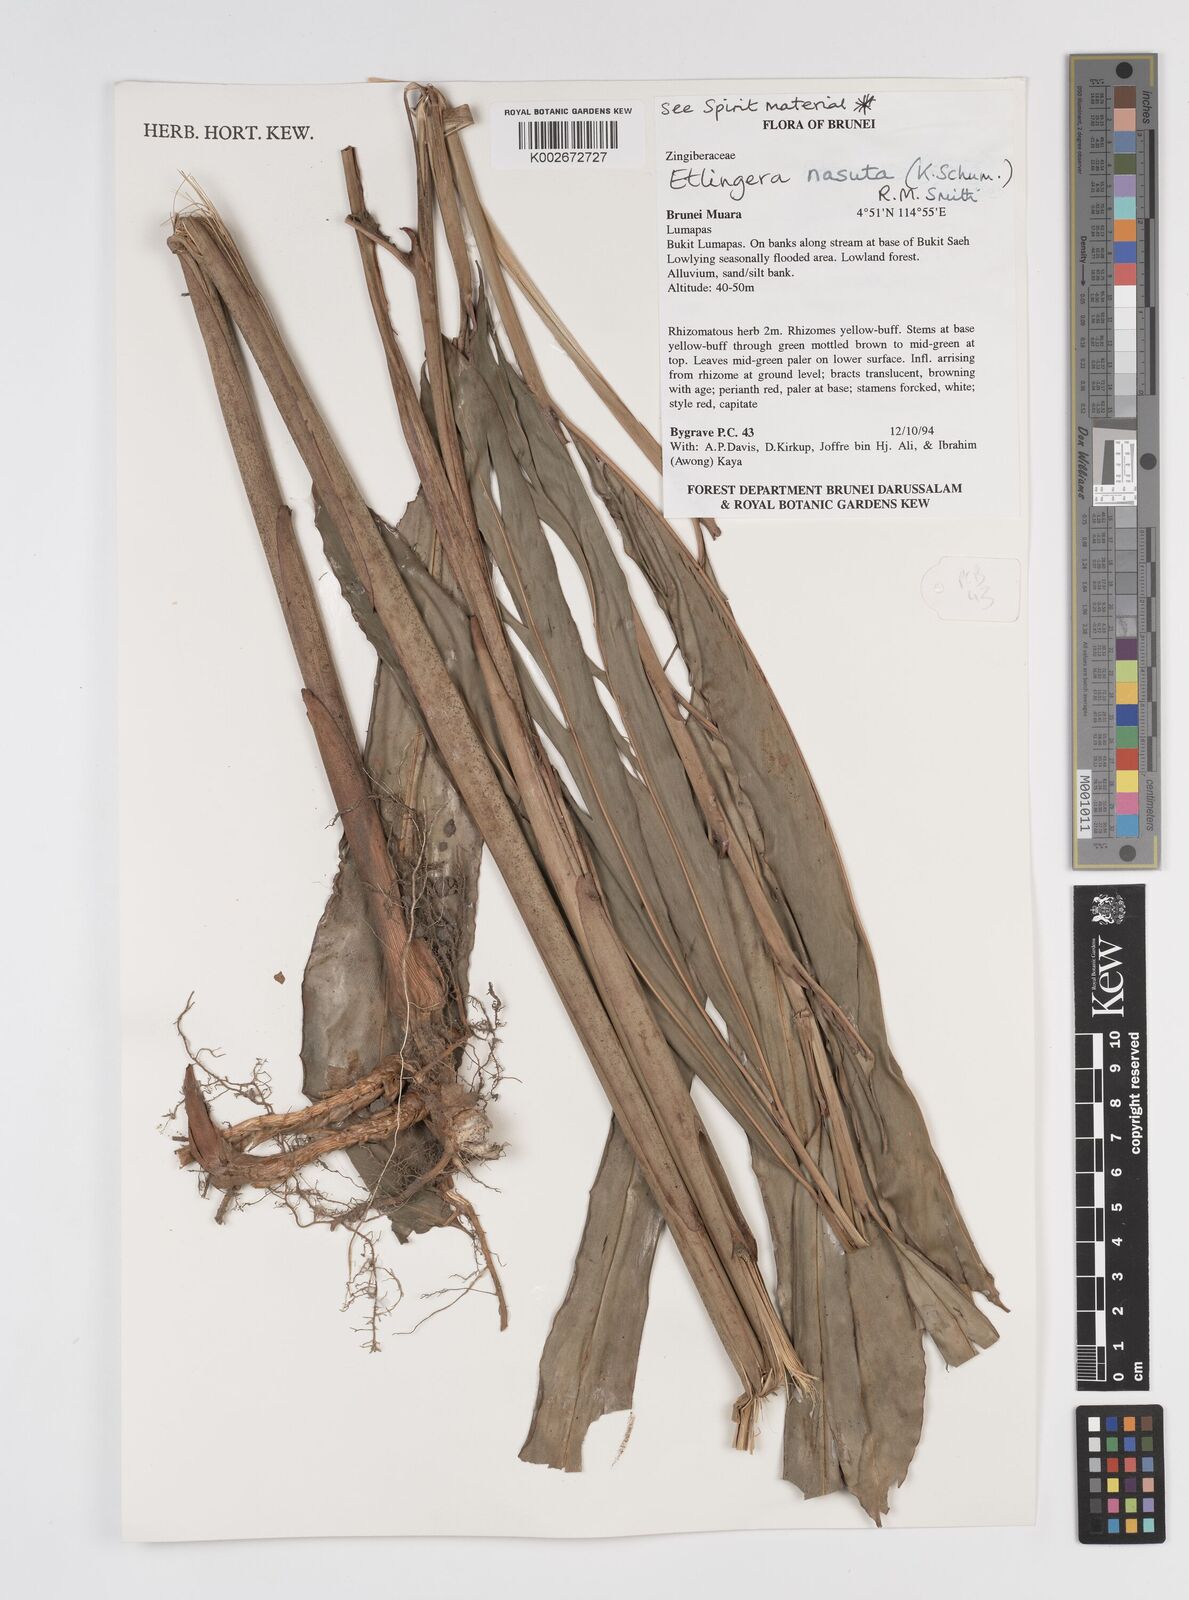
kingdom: Plantae
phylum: Tracheophyta
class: Liliopsida
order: Zingiberales
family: Zingiberaceae
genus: Etlingera
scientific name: Etlingera nasuta
